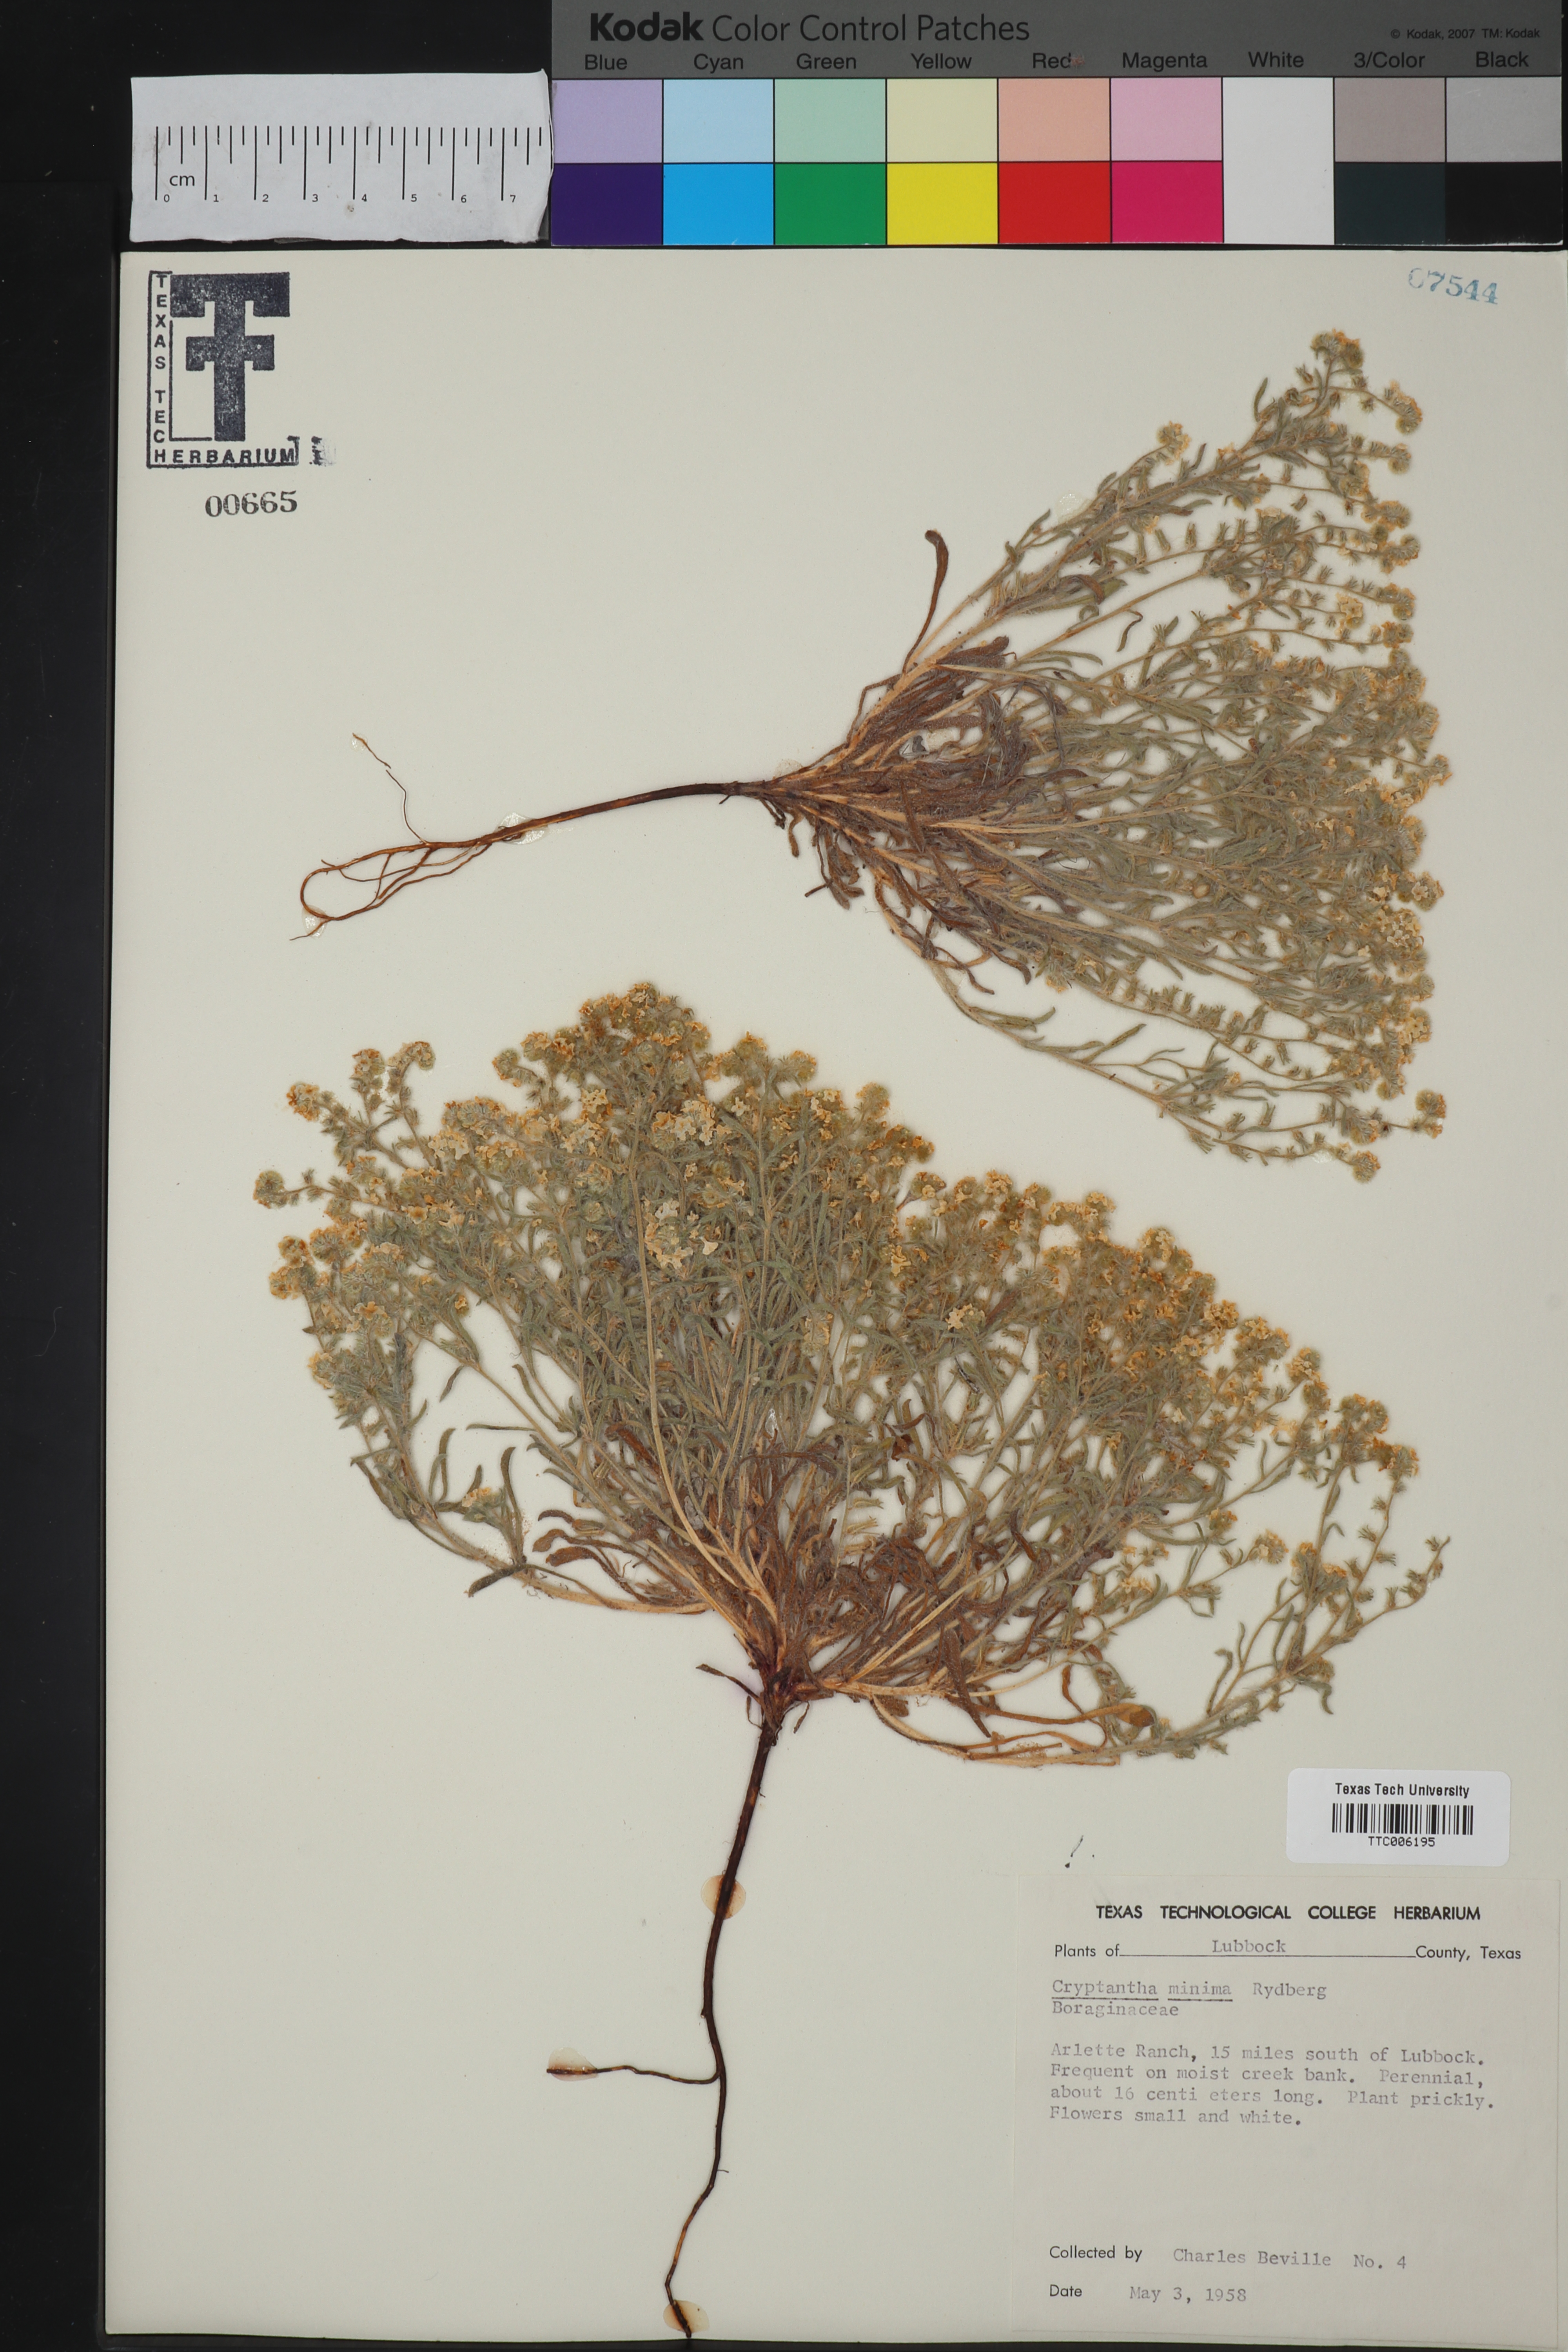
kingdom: Plantae
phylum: Tracheophyta
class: Magnoliopsida
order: Boraginales
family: Boraginaceae
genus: Cryptantha
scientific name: Cryptantha minima
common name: Little cat's-eye
